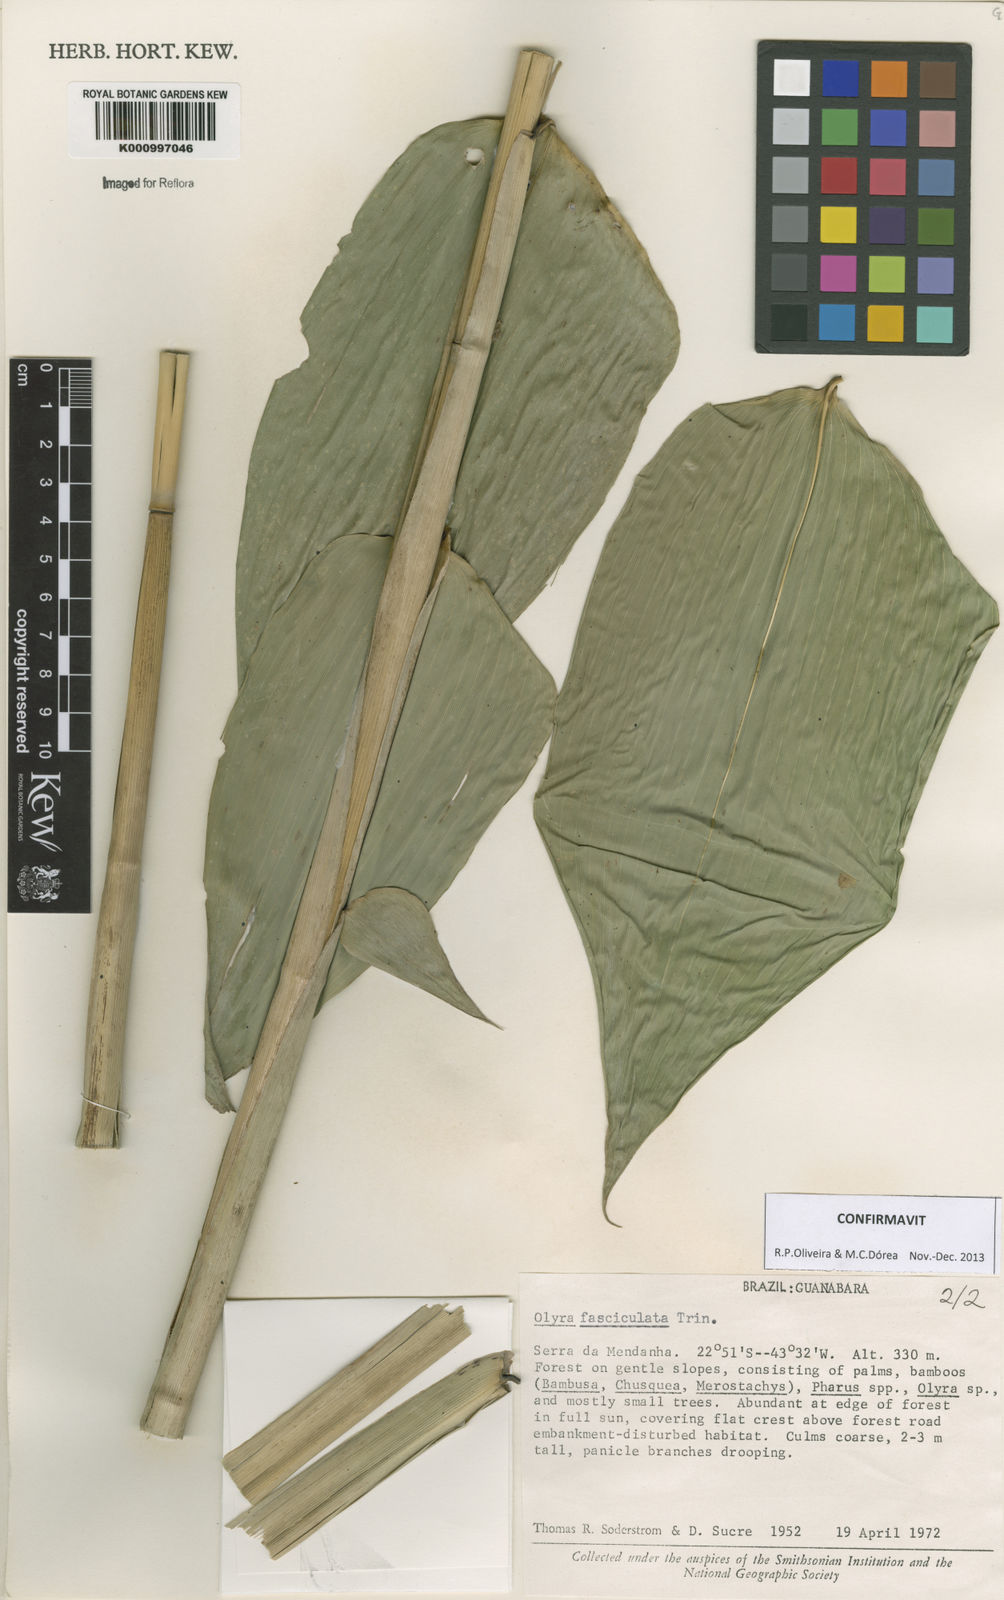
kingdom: Plantae
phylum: Tracheophyta
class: Liliopsida
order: Poales
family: Poaceae
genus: Olyra
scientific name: Olyra fasciculata
